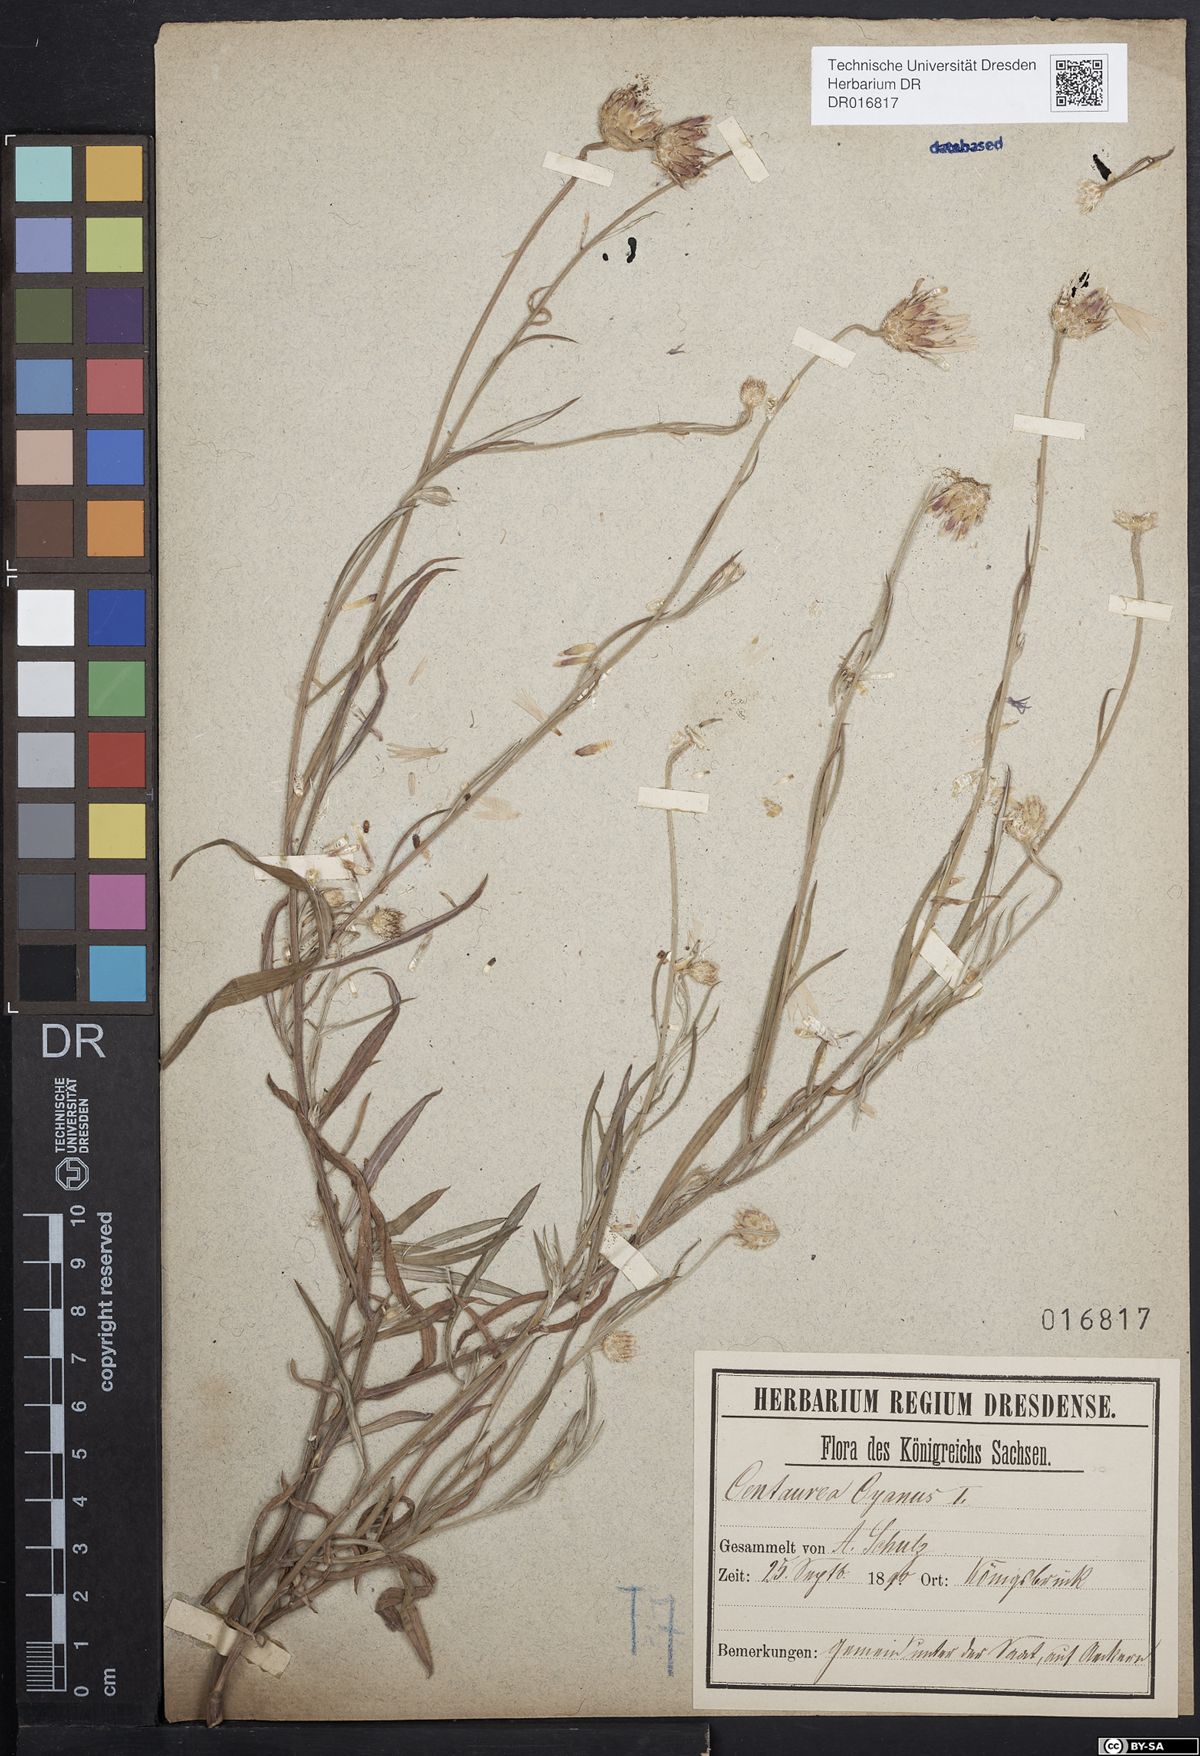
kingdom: Plantae
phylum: Tracheophyta
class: Magnoliopsida
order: Asterales
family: Asteraceae
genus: Centaurea
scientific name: Centaurea cyanus
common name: Cornflower
